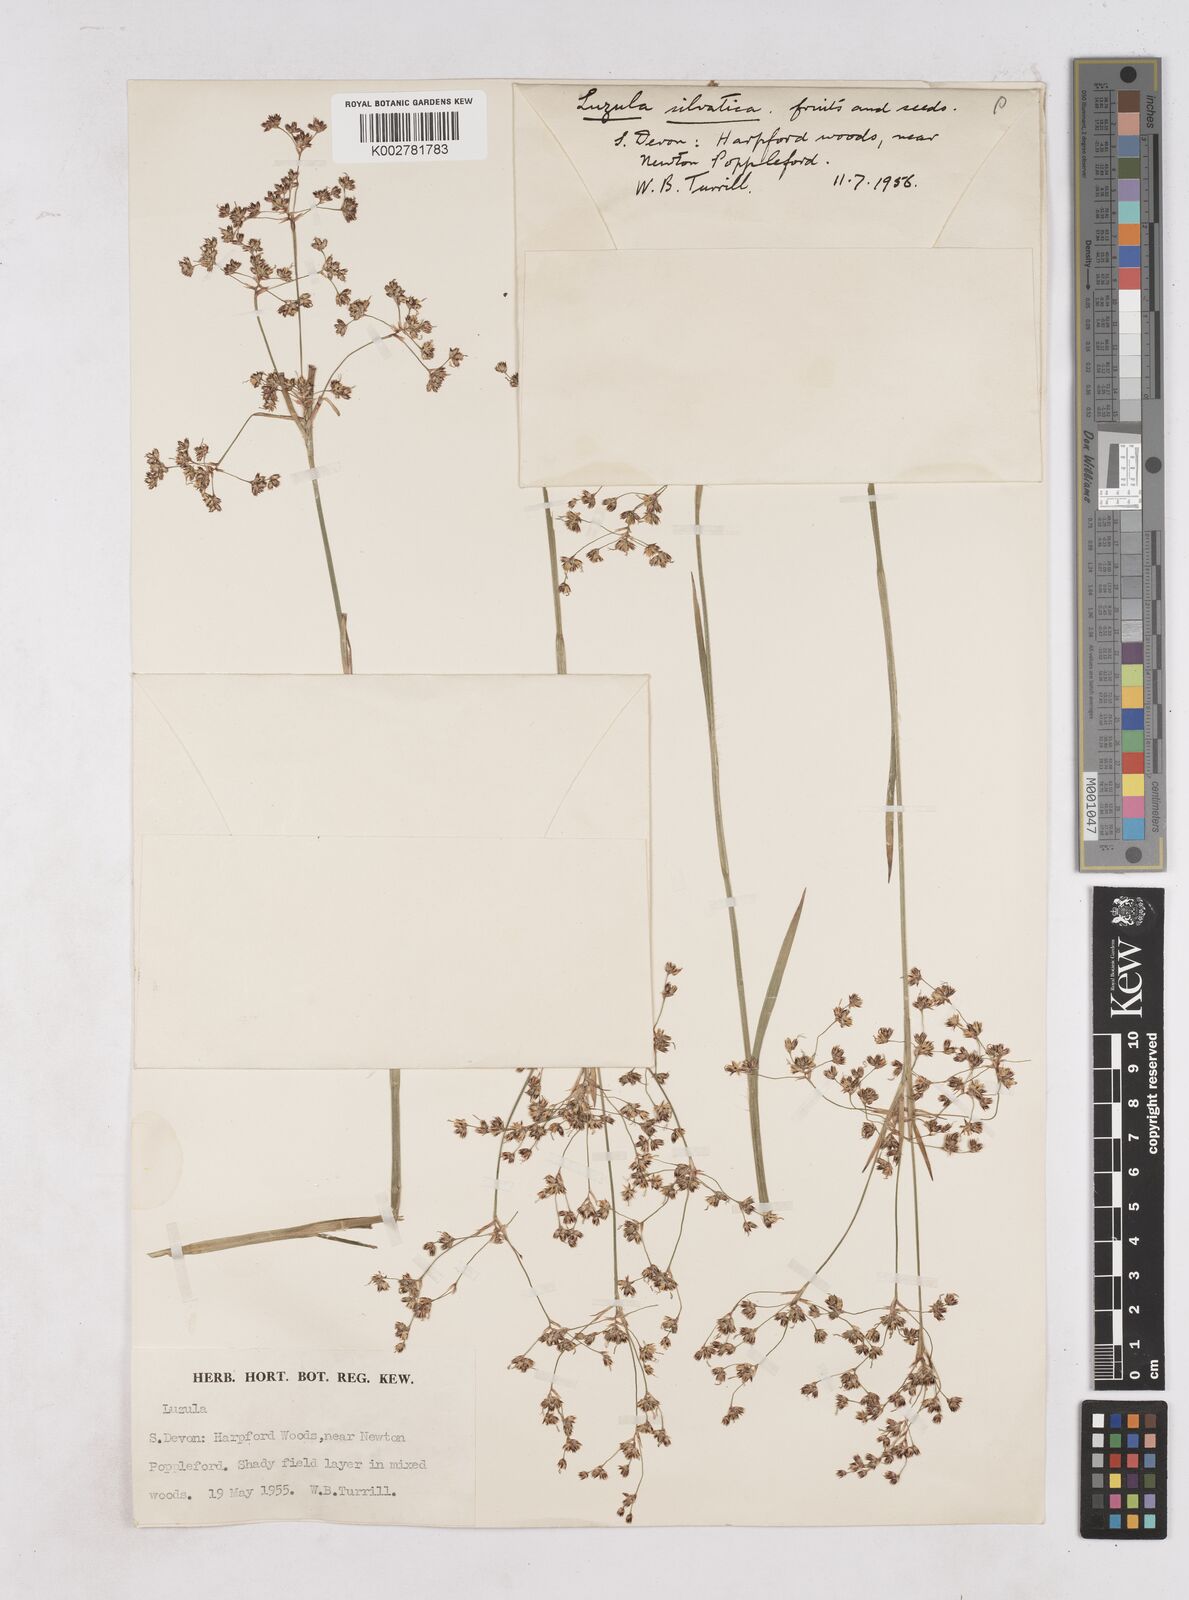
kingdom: Plantae
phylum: Tracheophyta
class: Liliopsida
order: Poales
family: Juncaceae
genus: Luzula
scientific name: Luzula sylvatica
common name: Great wood-rush
